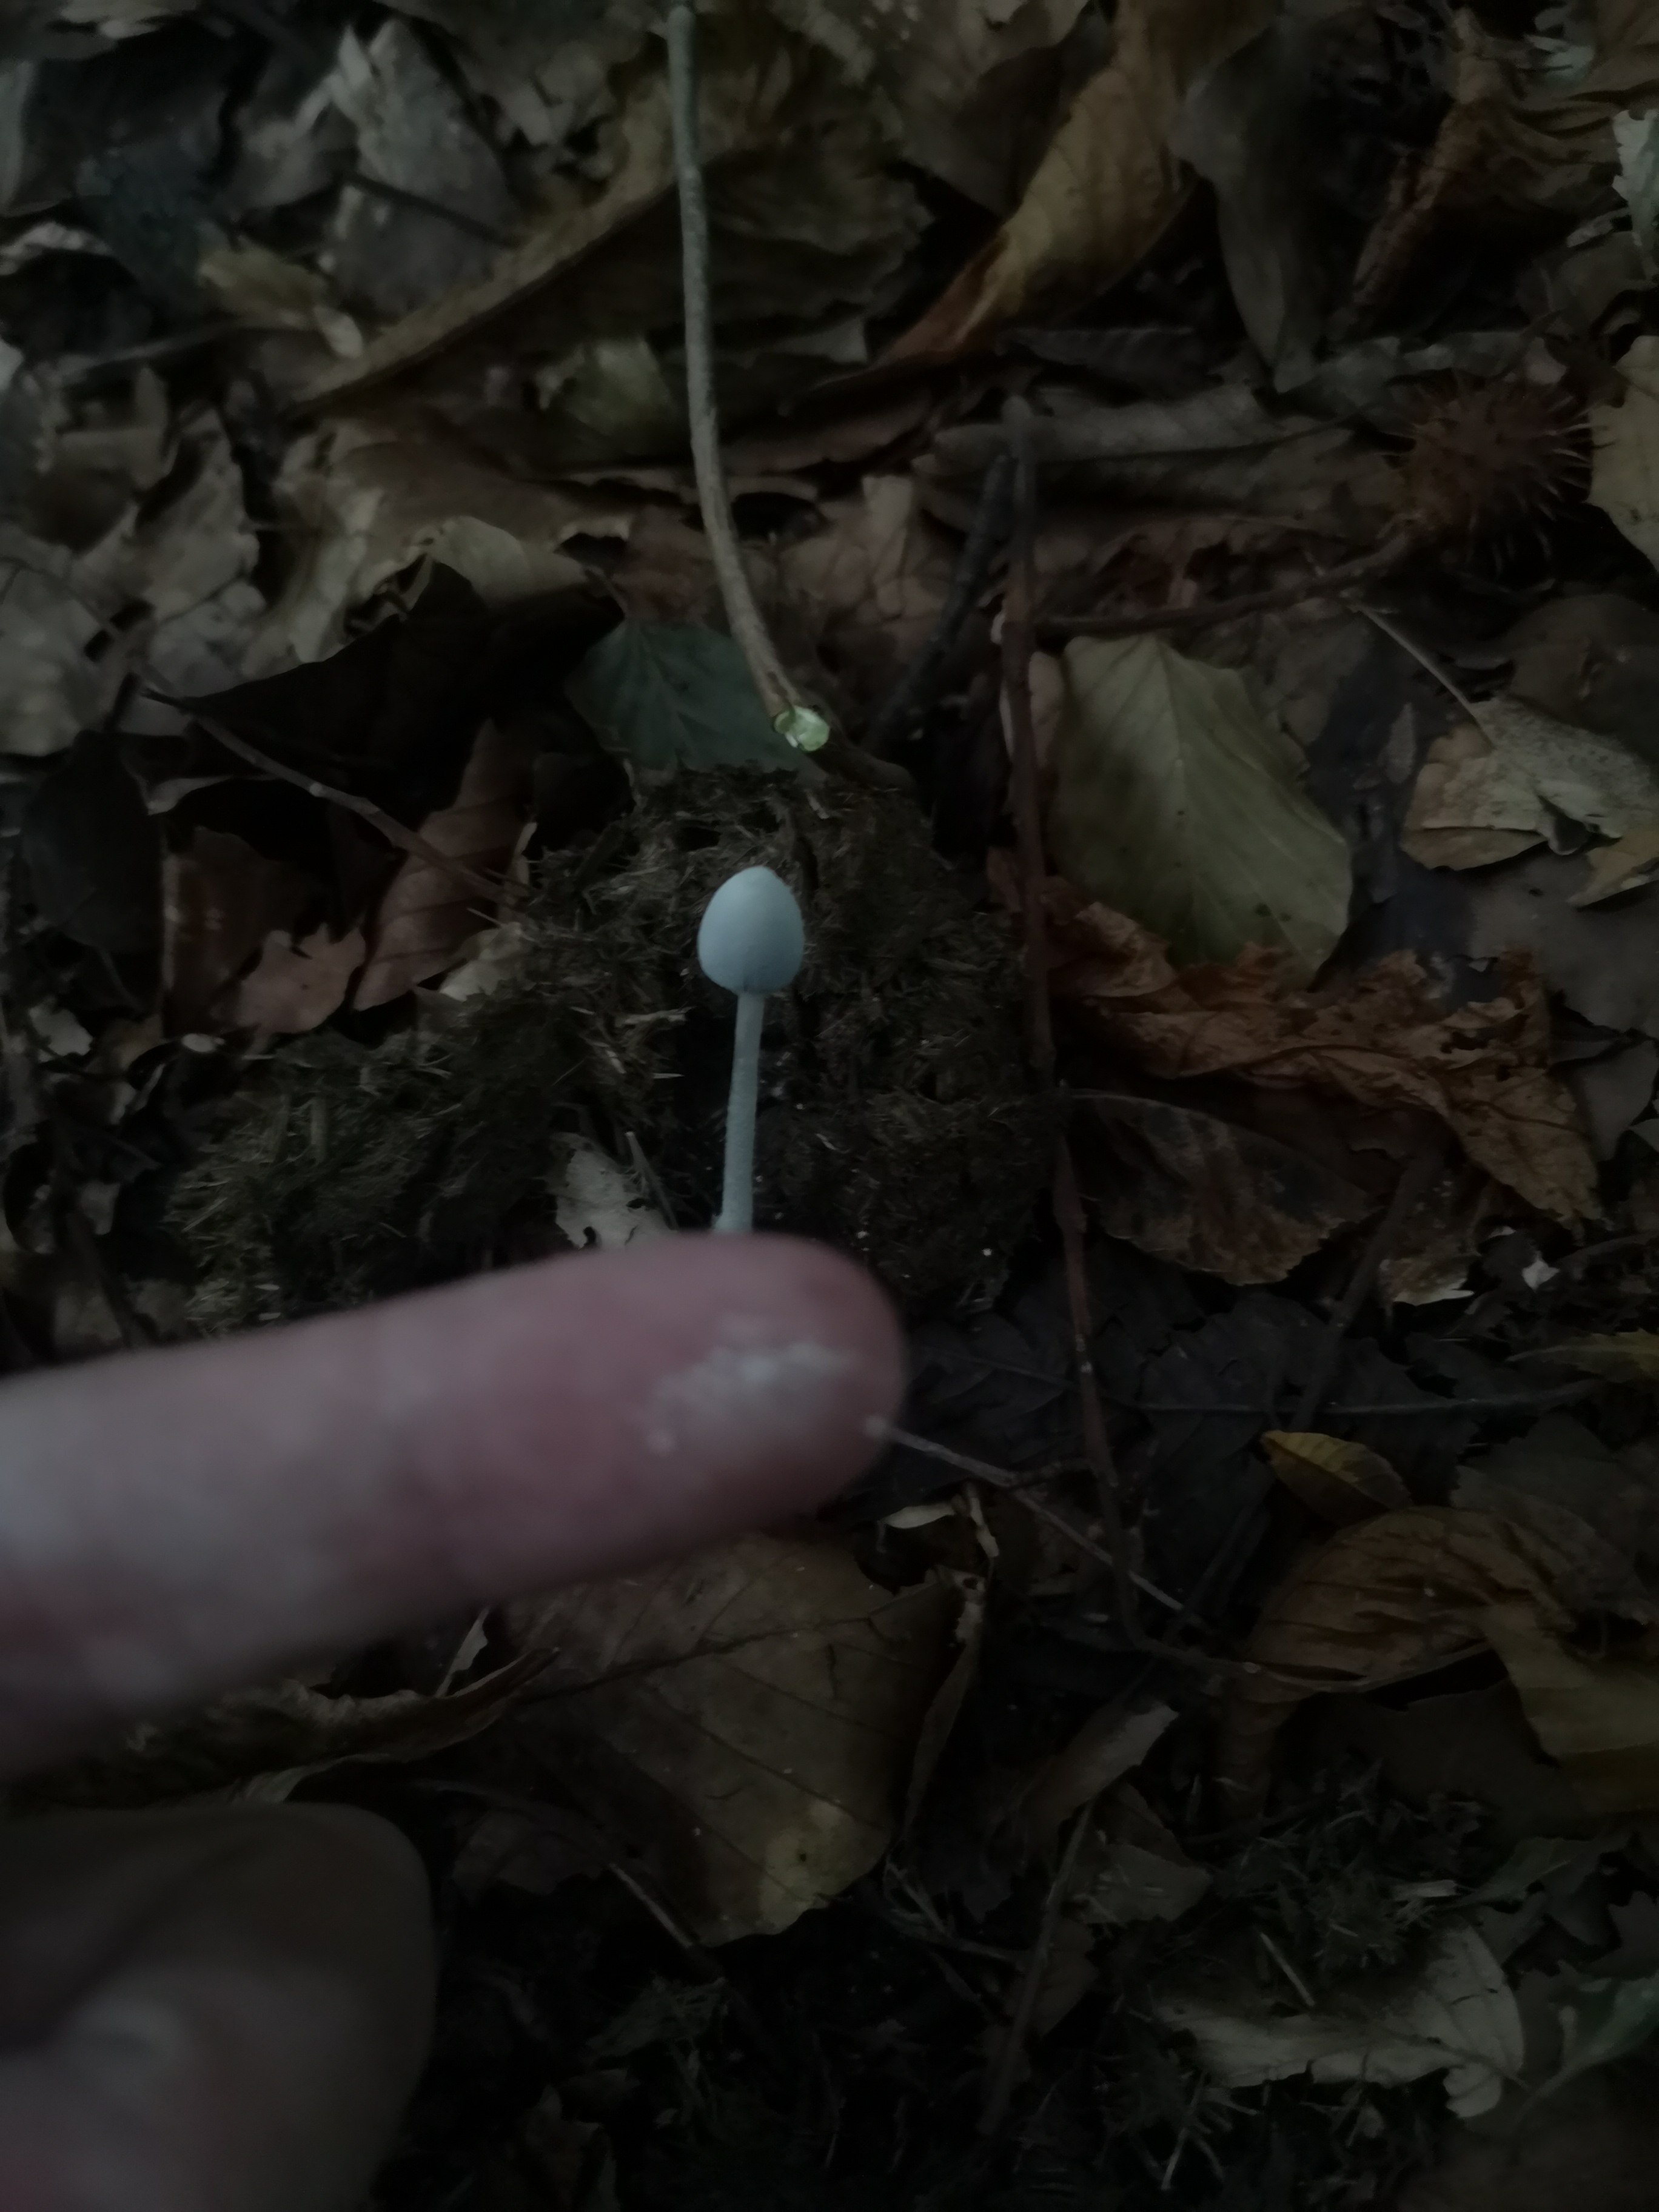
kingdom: Fungi
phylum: Basidiomycota
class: Agaricomycetes
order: Agaricales
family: Psathyrellaceae
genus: Coprinopsis
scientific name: Coprinopsis nivea
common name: snehvid blækhat
